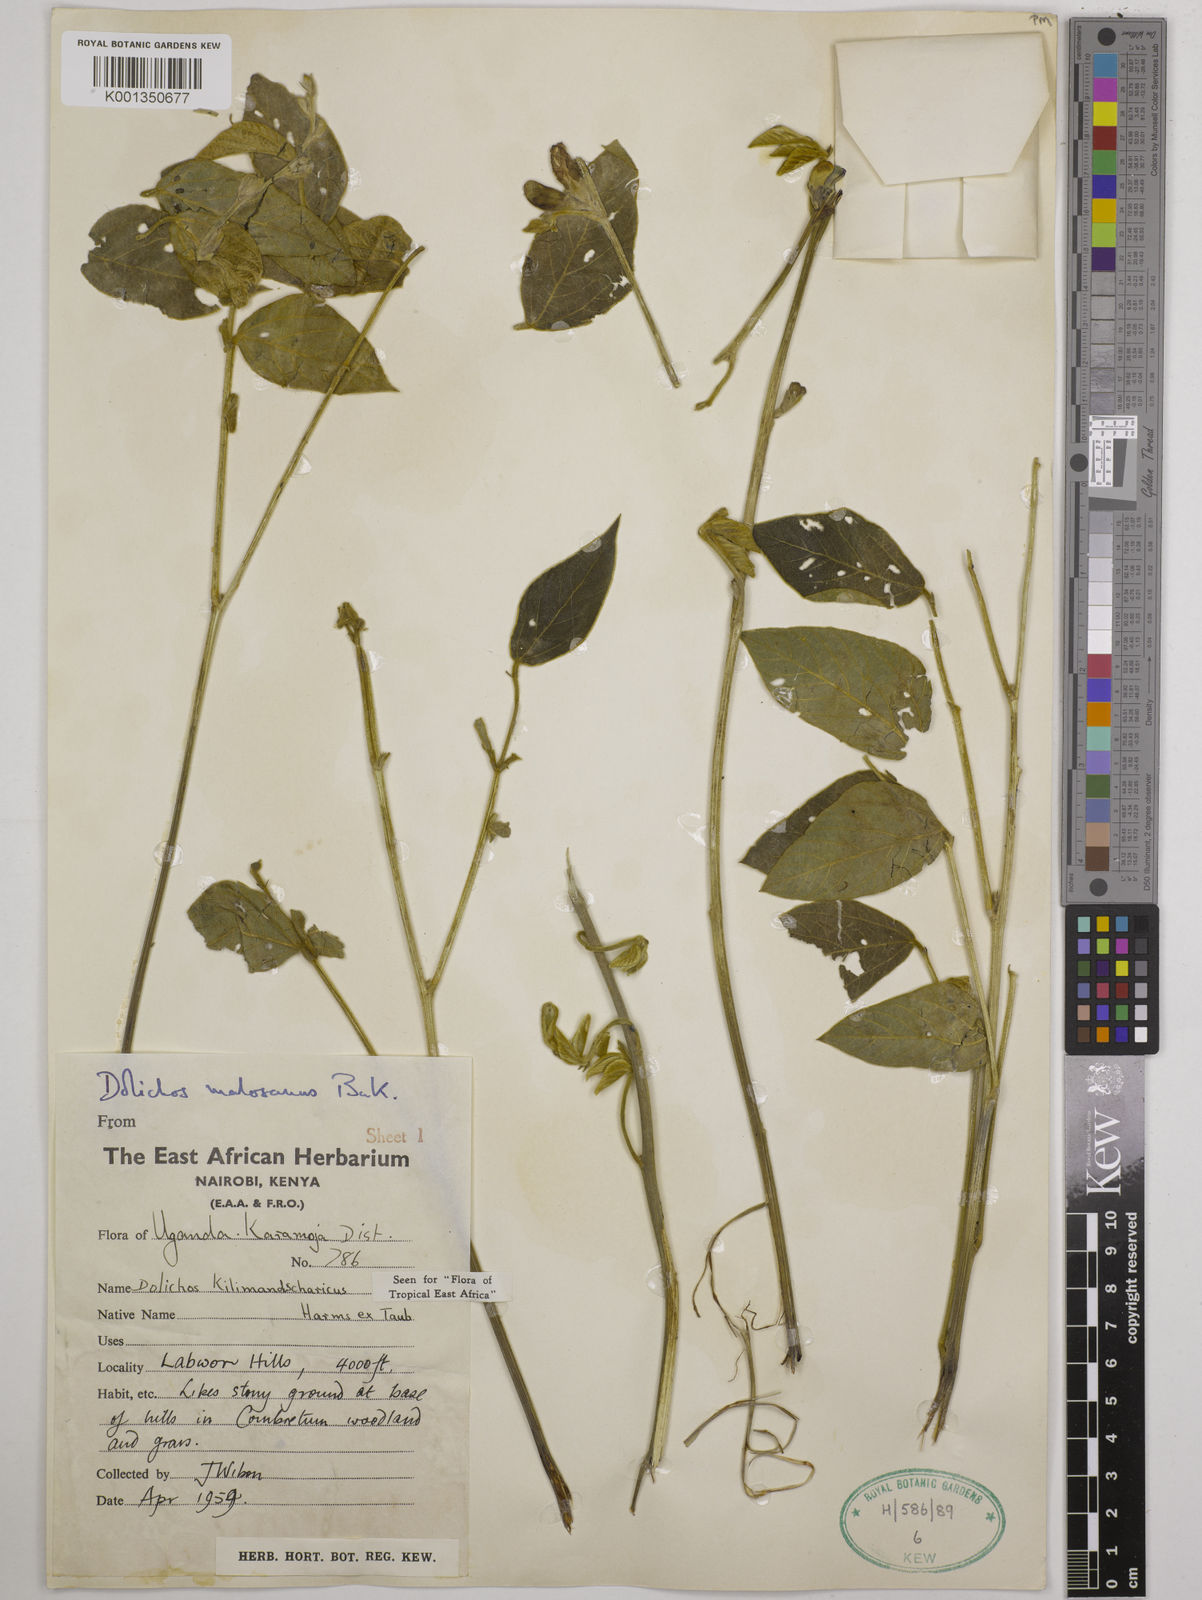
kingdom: Plantae
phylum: Tracheophyta
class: Magnoliopsida
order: Fabales
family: Fabaceae
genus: Dolichos
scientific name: Dolichos kilimandscharicus
